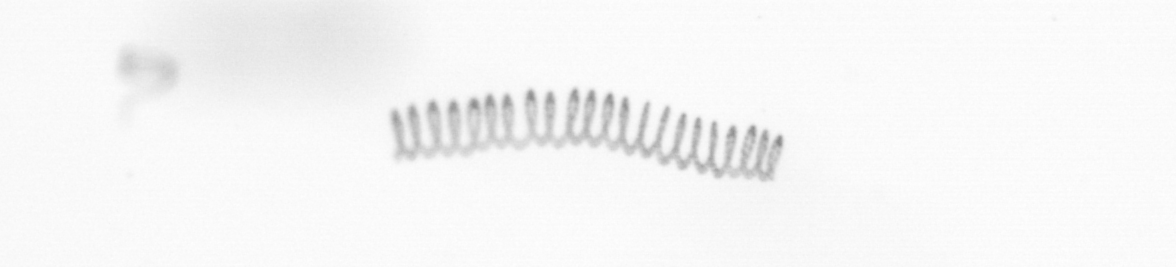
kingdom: Chromista
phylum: Ochrophyta
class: Bacillariophyceae
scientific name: Bacillariophyceae
